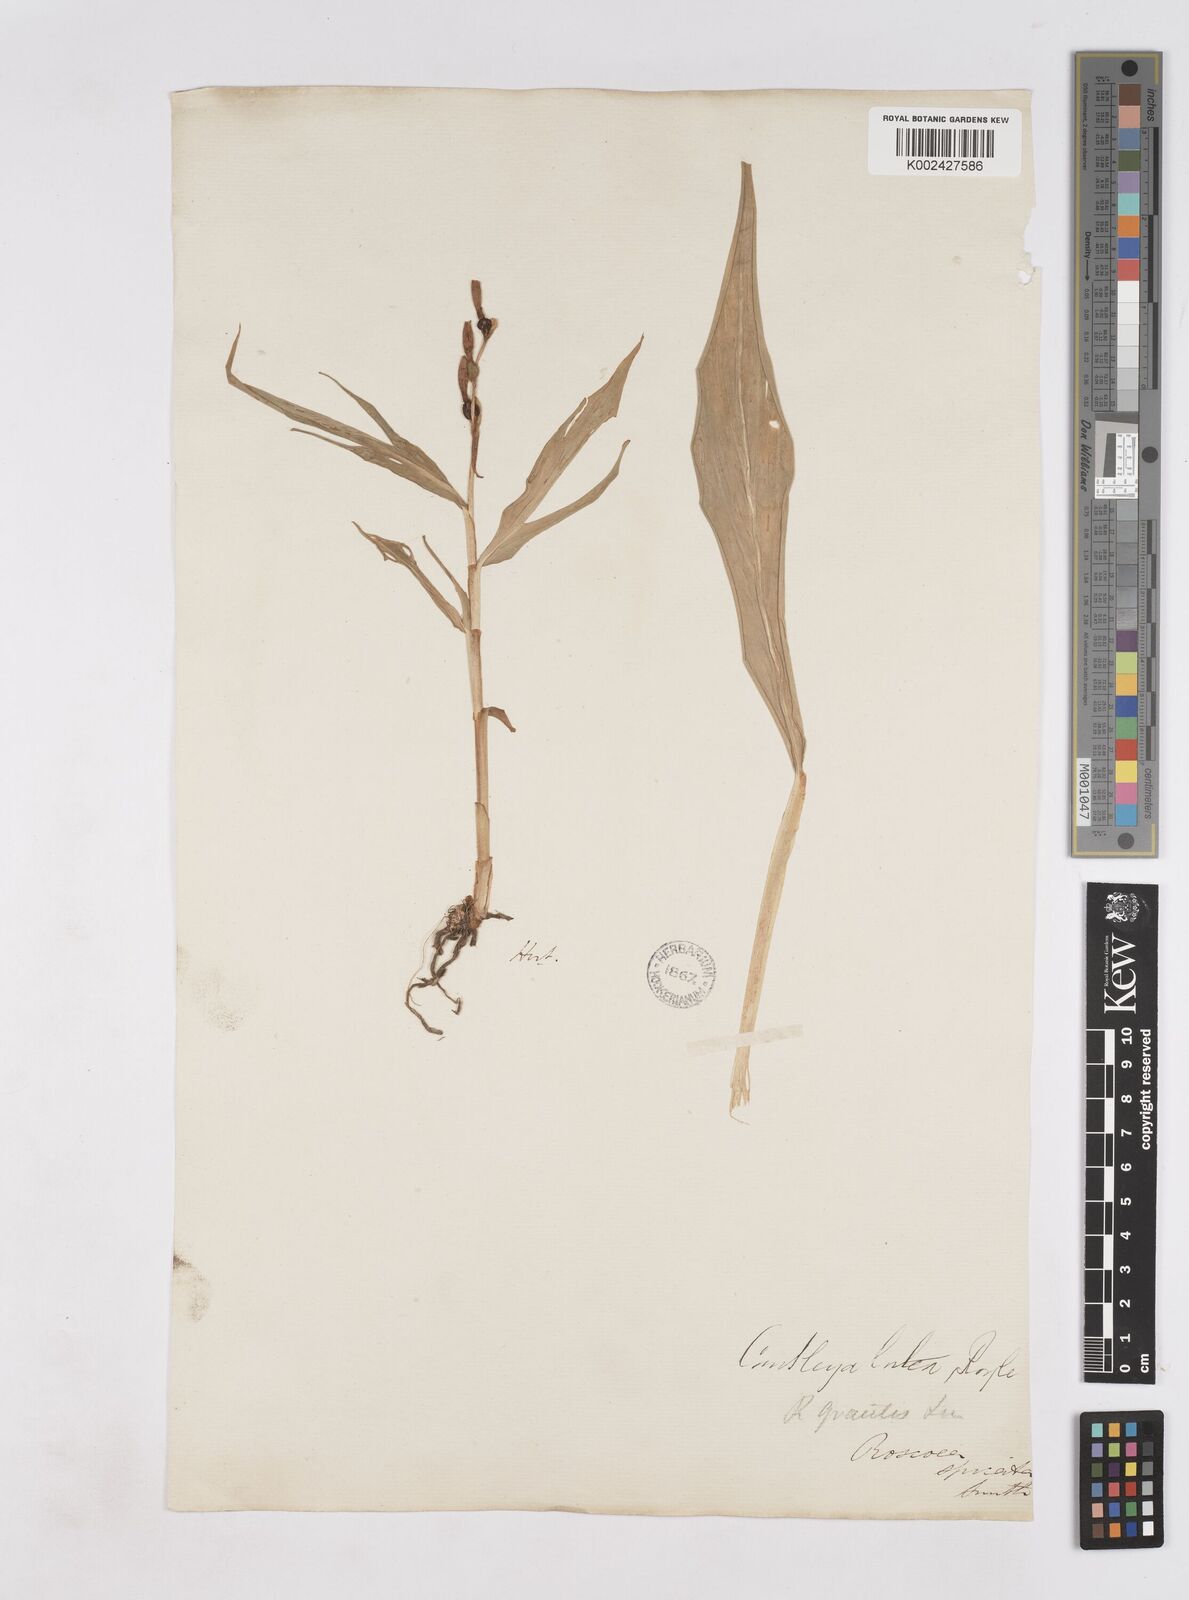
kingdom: Plantae
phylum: Tracheophyta
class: Liliopsida
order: Zingiberales
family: Zingiberaceae
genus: Cautleya
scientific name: Cautleya gracilis
